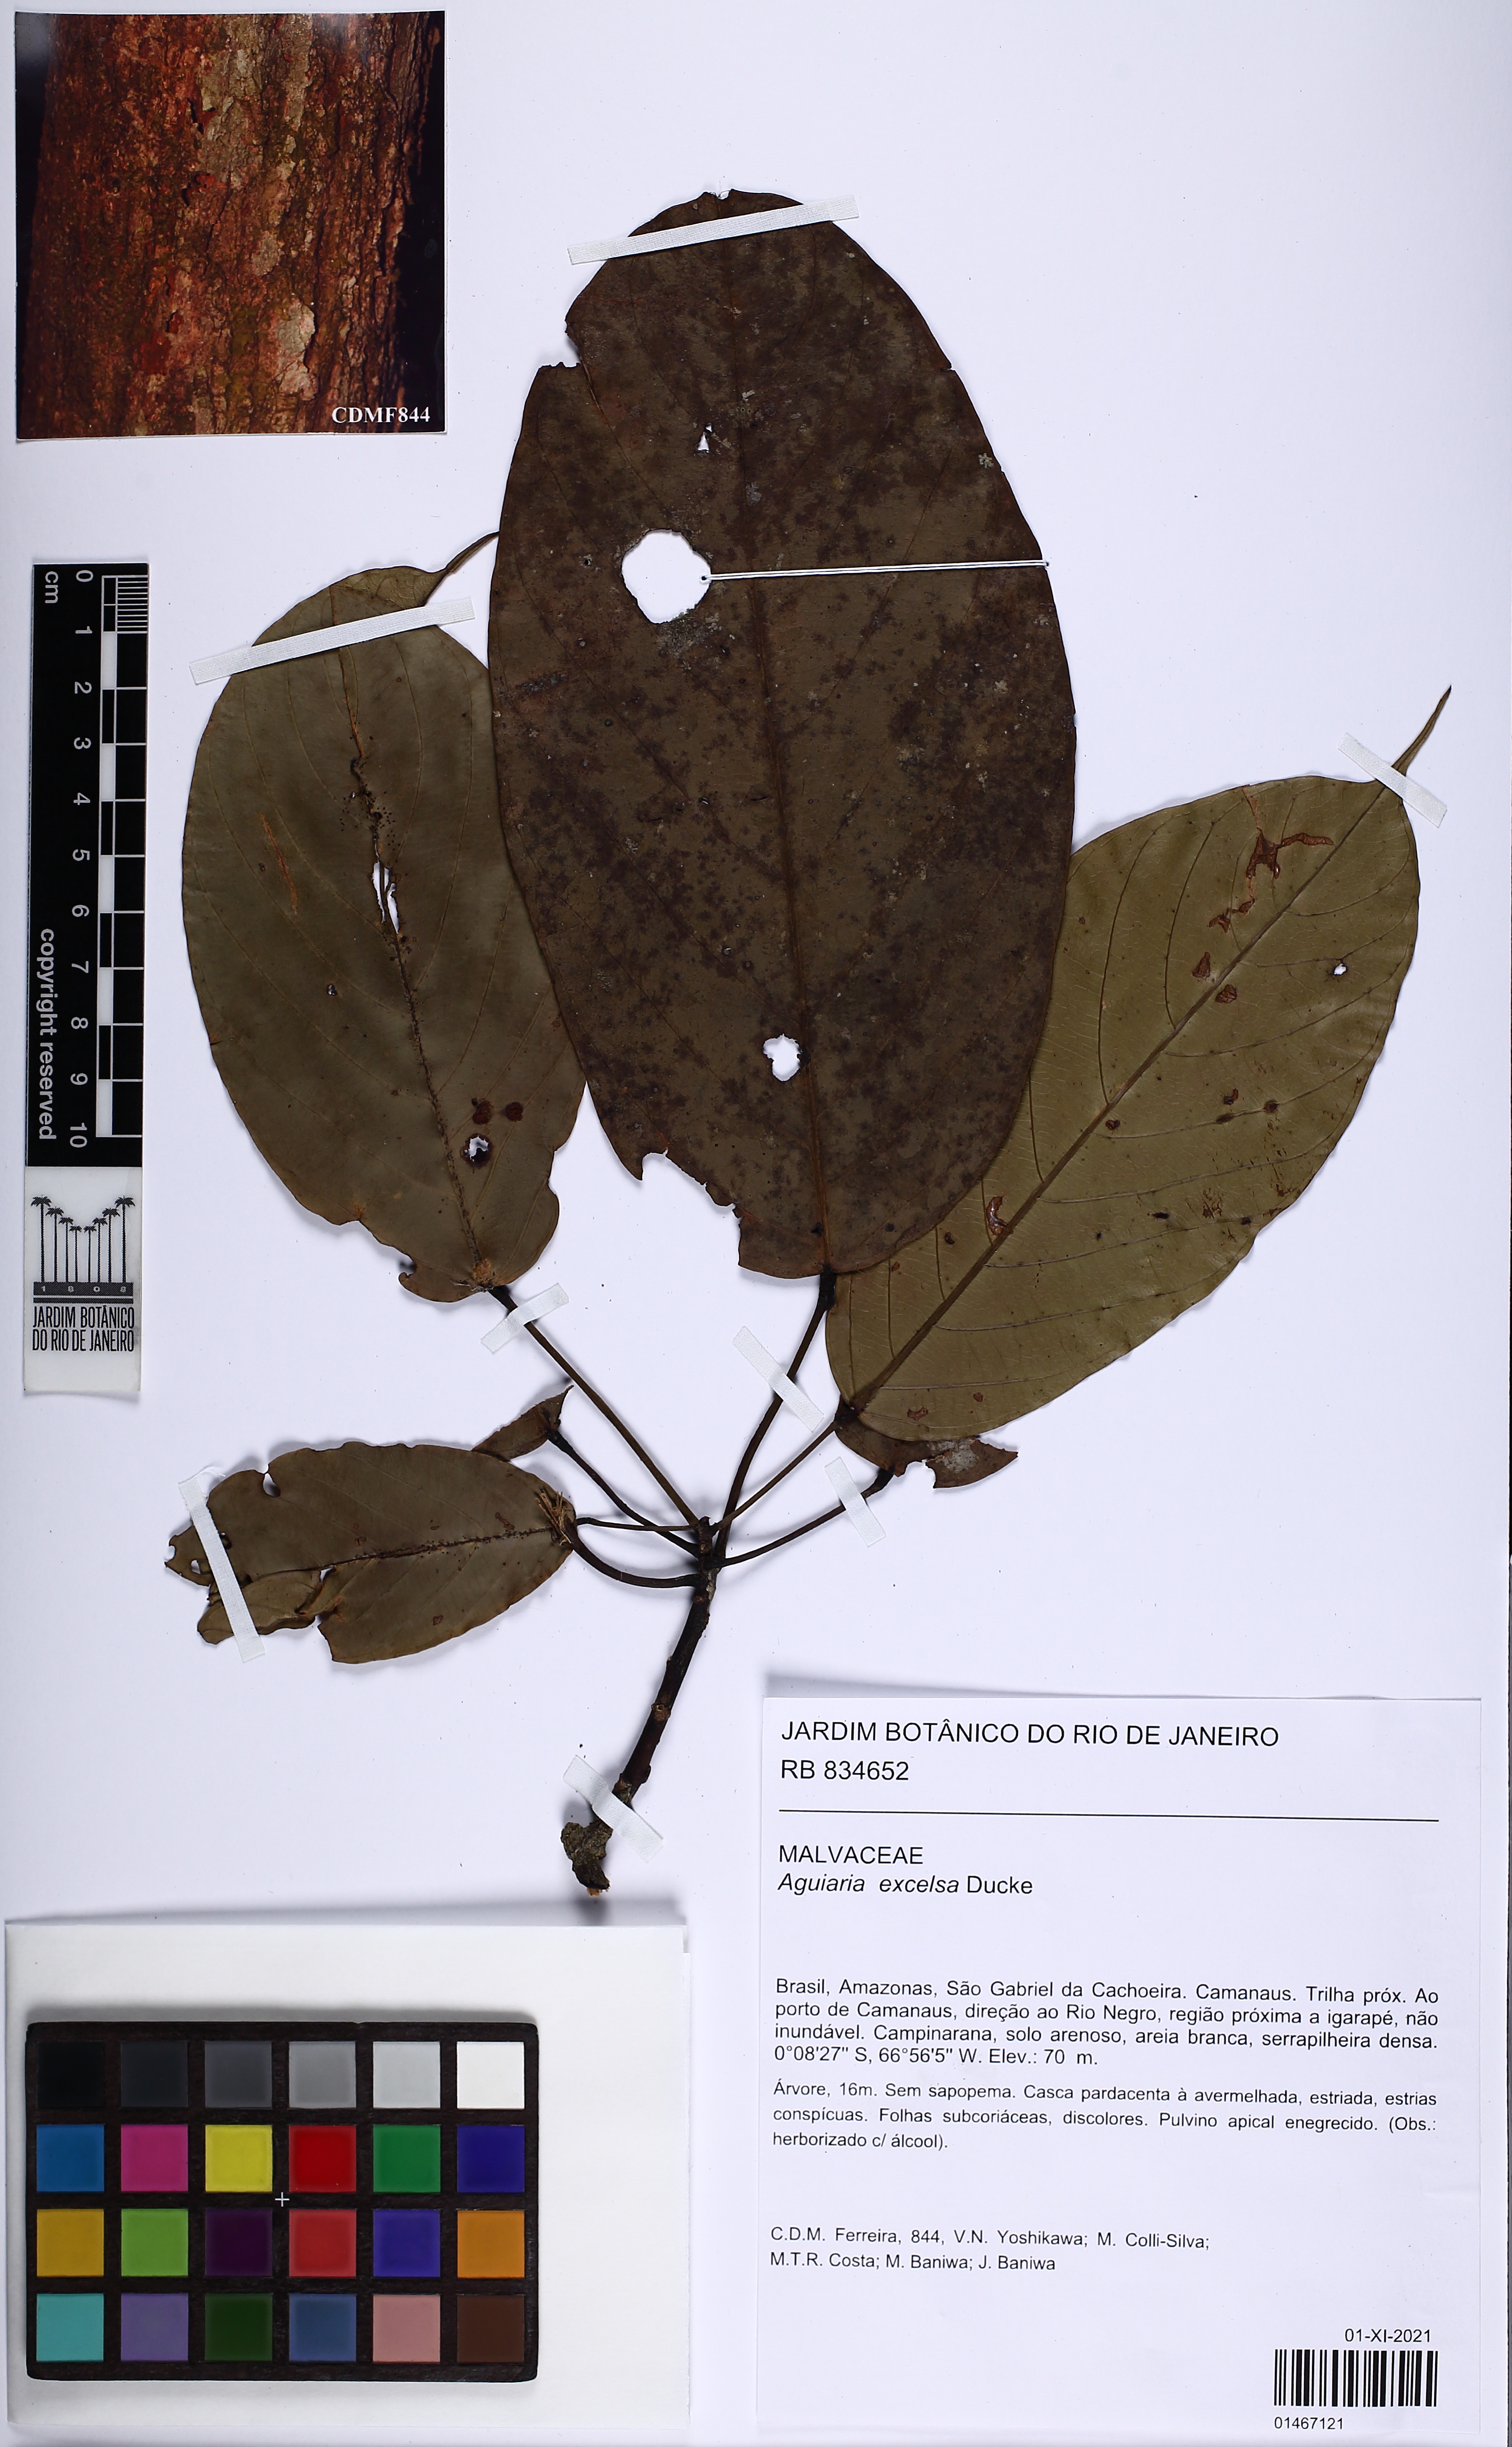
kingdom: Plantae
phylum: Tracheophyta
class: Magnoliopsida
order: Malvales
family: Malvaceae
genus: Aguiaria
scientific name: Aguiaria excelsa
